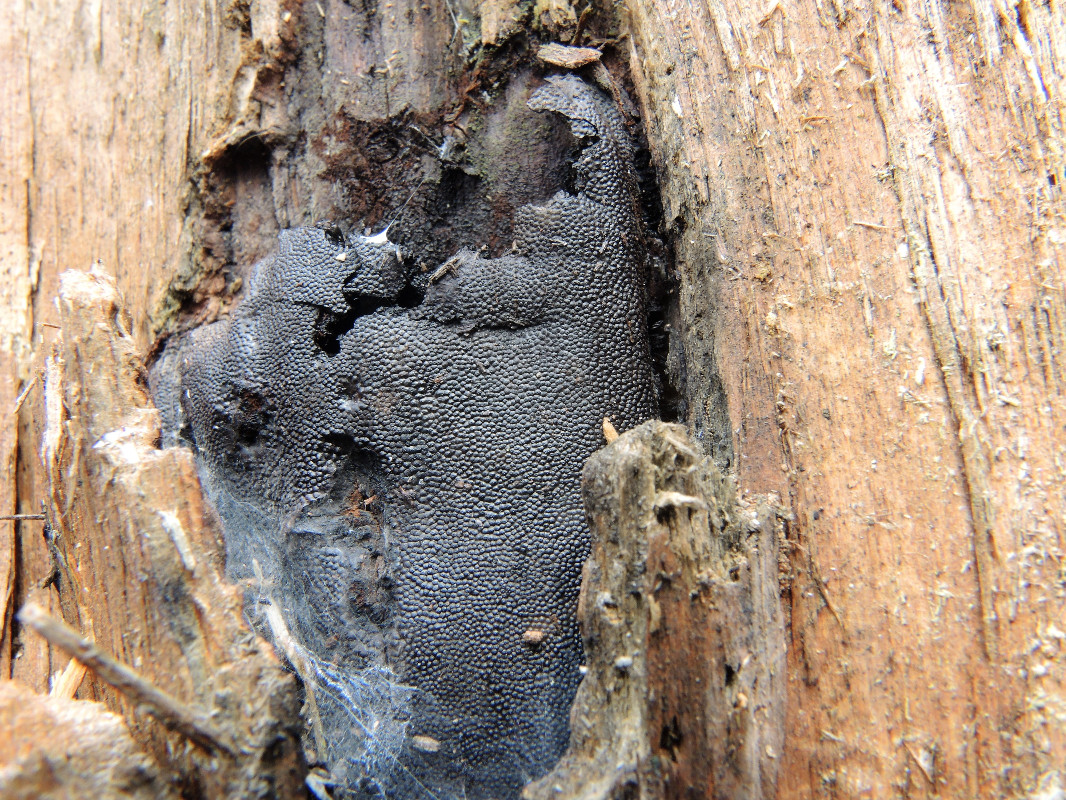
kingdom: Fungi
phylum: Ascomycota
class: Sordariomycetes
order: Boliniales
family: Boliniaceae
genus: Camarops
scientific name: Camarops polysperma
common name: elle-kulsnegl
